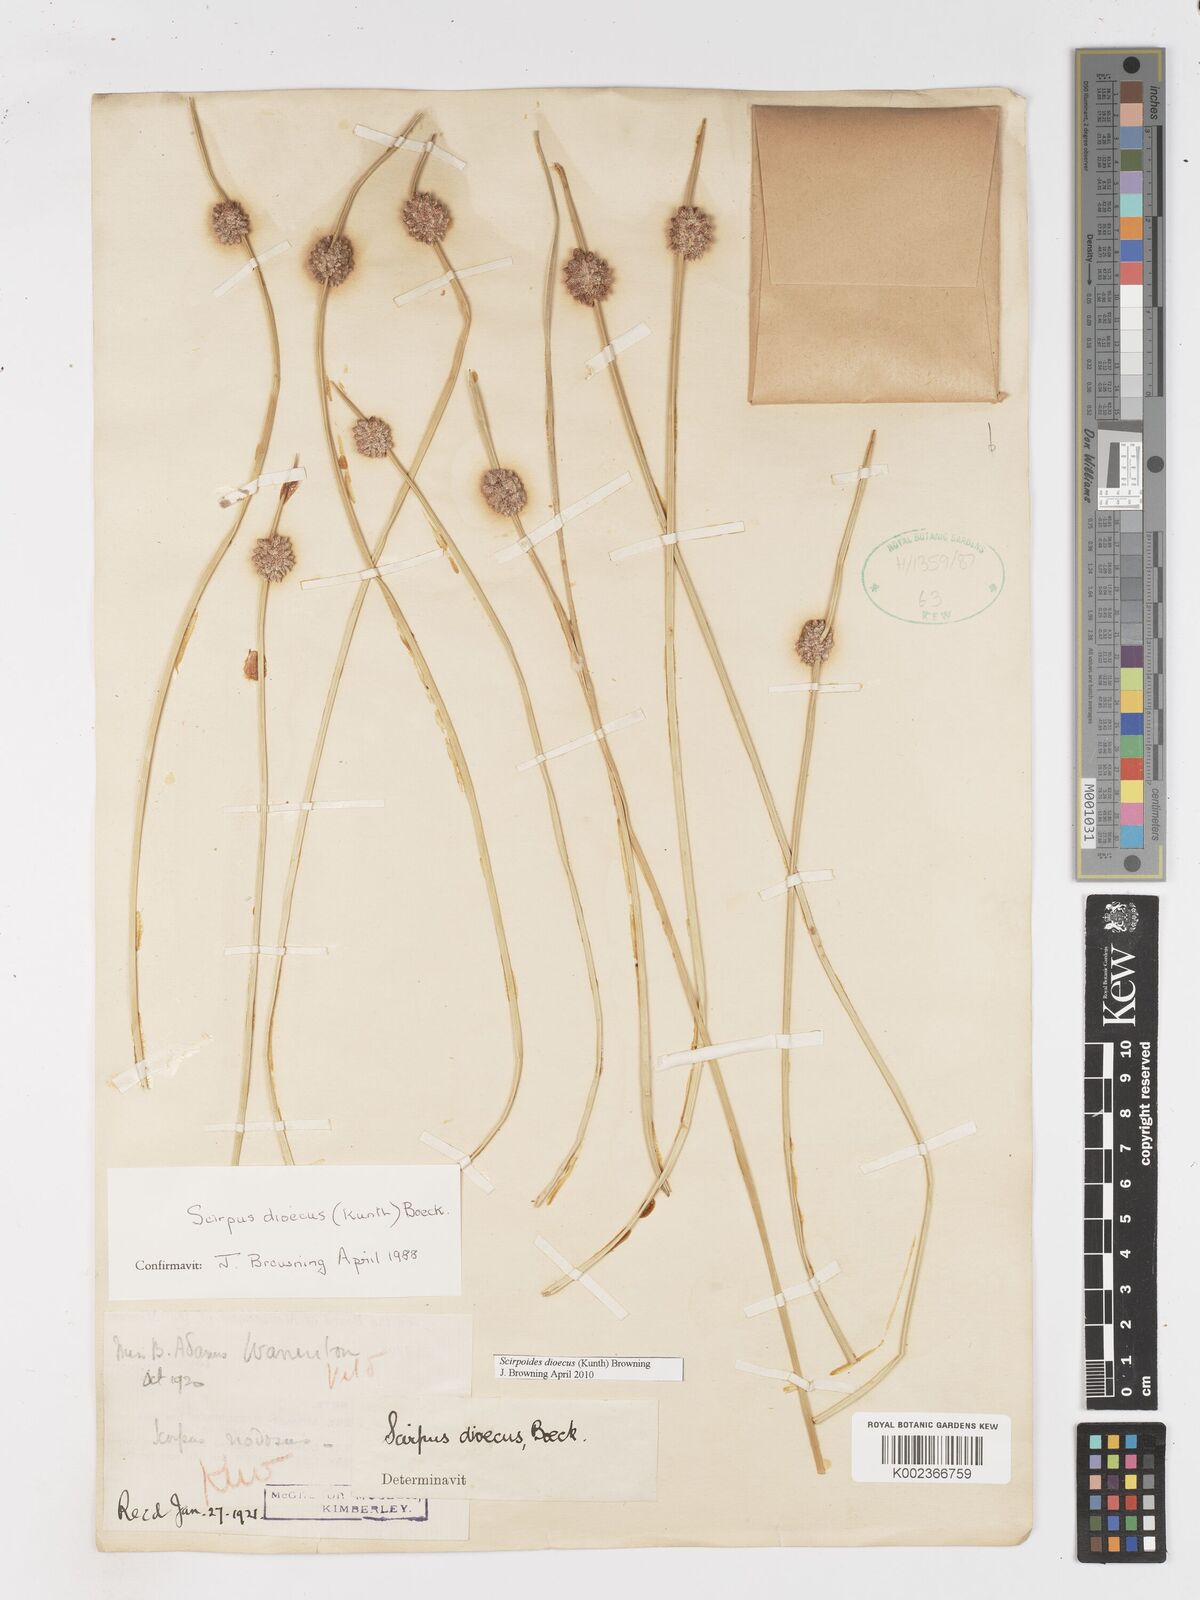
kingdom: Plantae
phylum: Tracheophyta
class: Liliopsida
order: Poales
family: Cyperaceae
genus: Afroscirpoides
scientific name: Afroscirpoides dioeca
